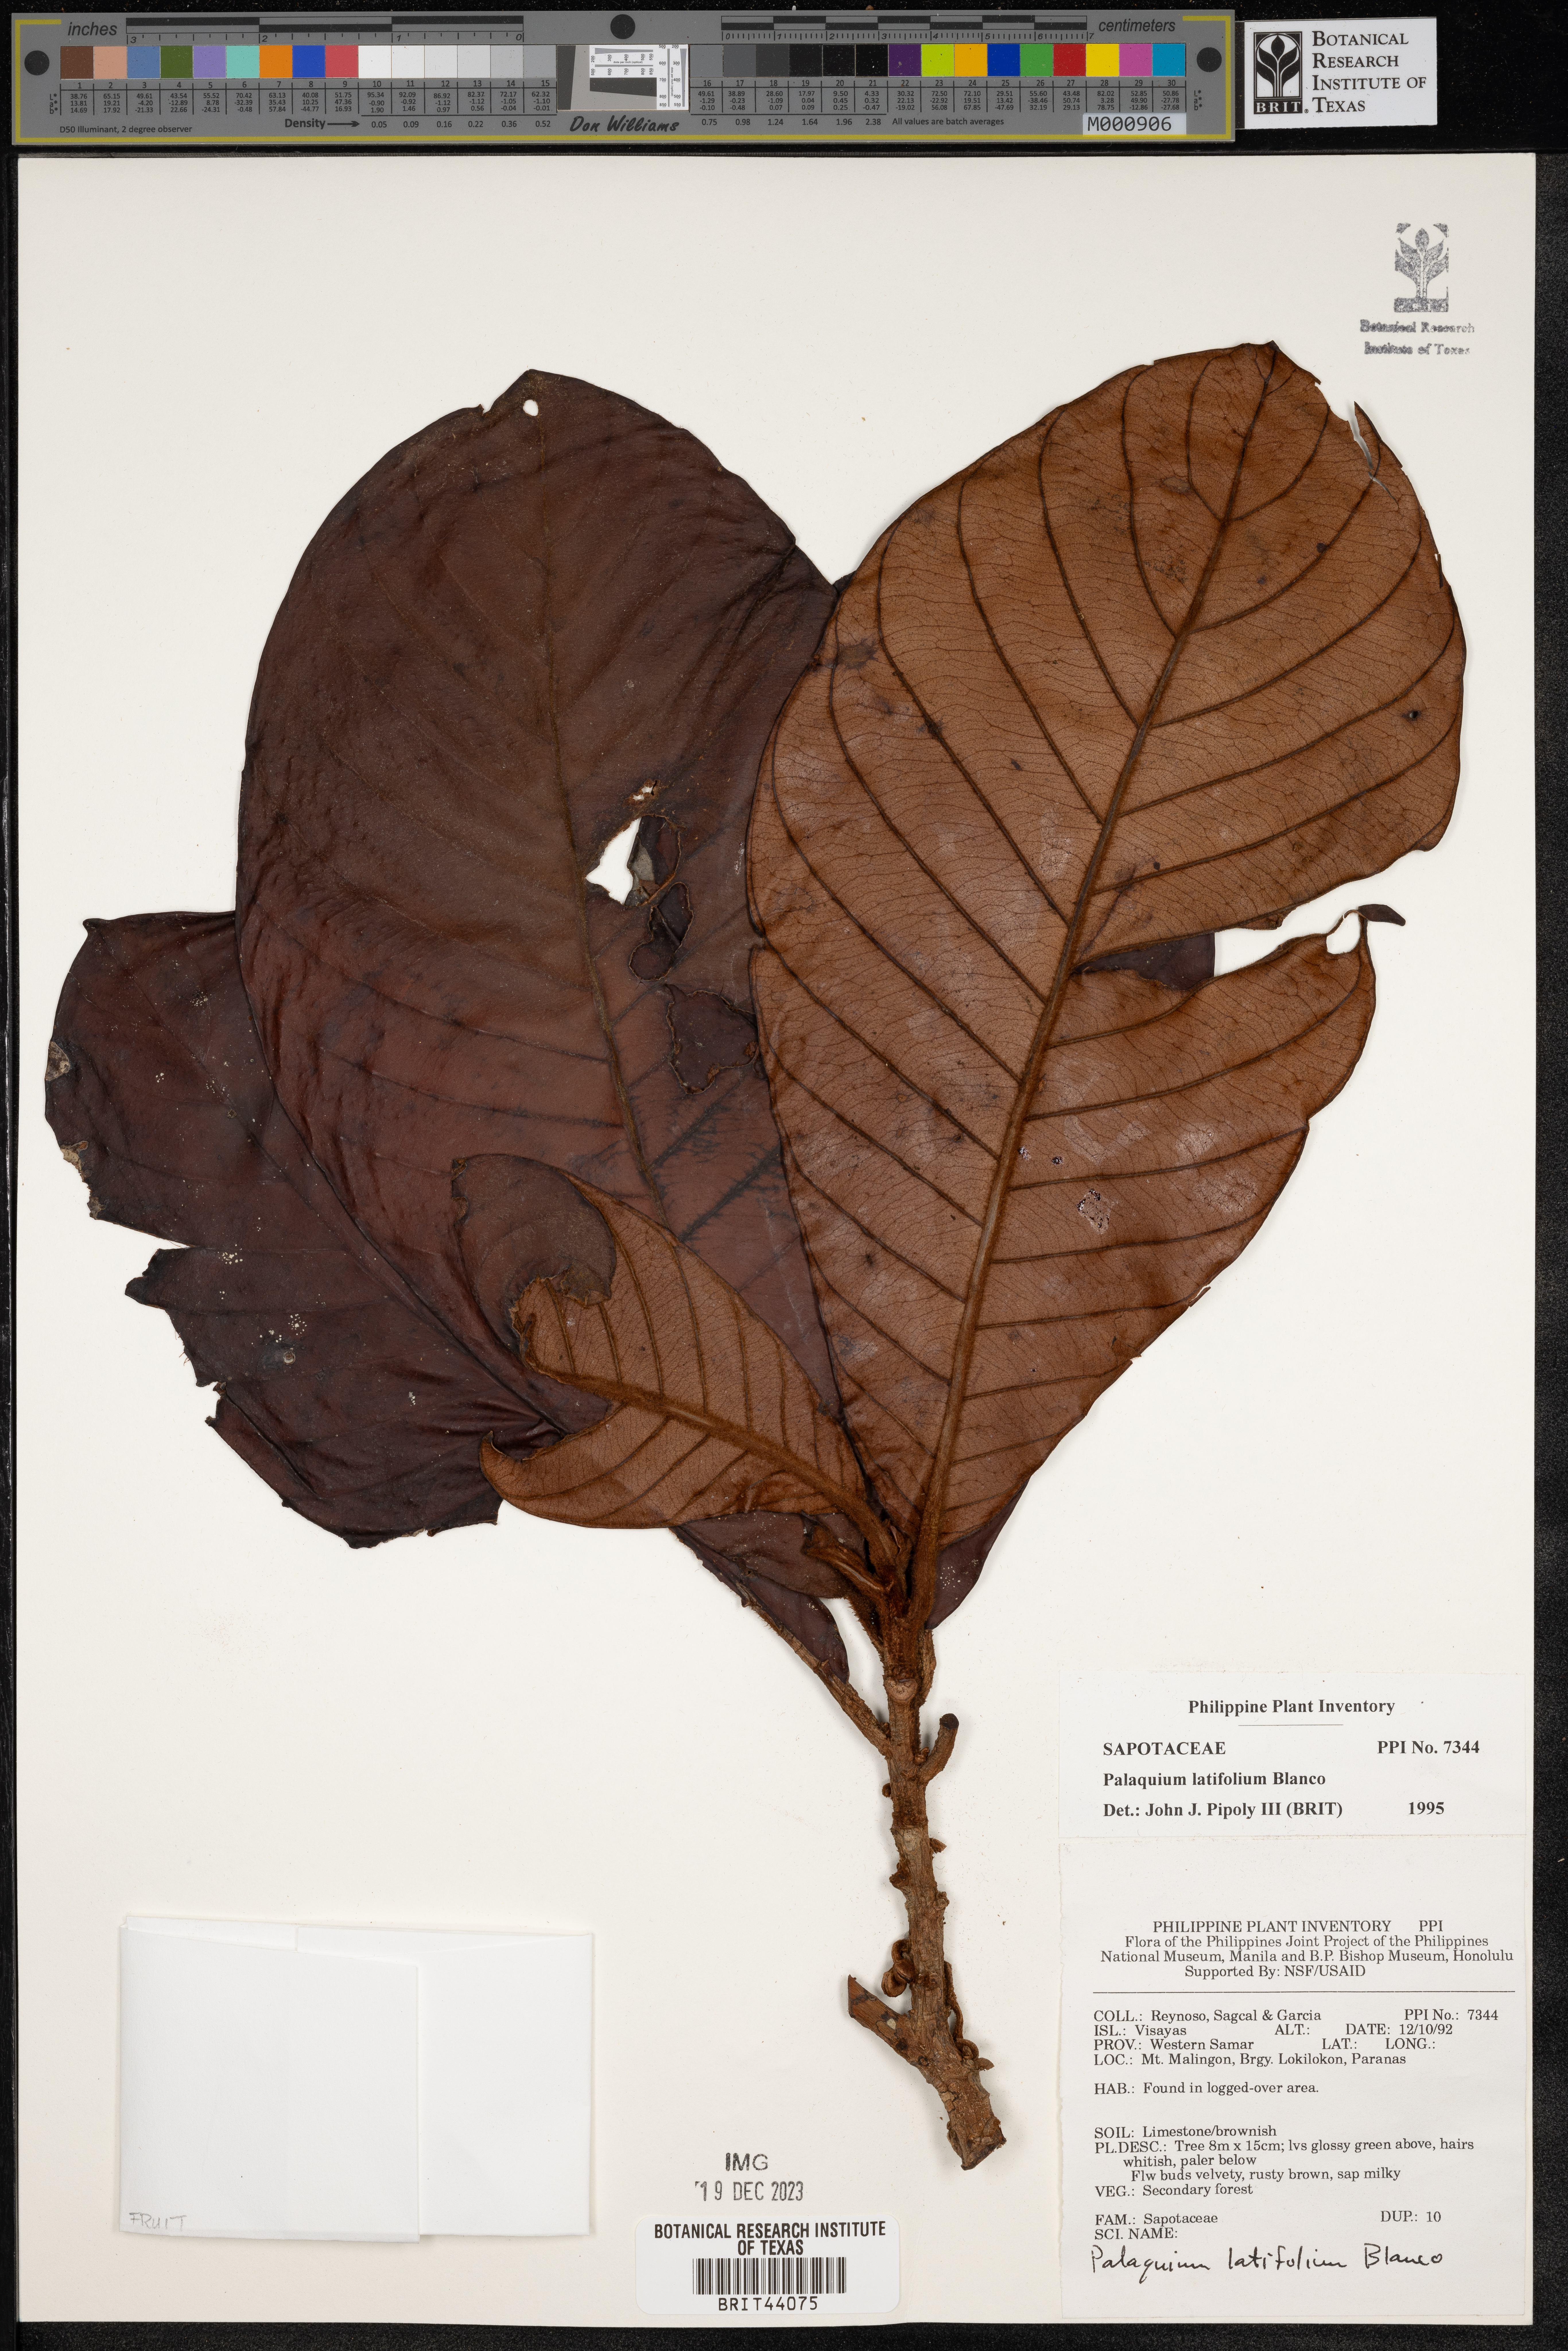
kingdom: Plantae
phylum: Tracheophyta
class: Magnoliopsida
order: Ericales
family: Sapotaceae
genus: Palaquium
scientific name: Palaquium luzoniense
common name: Red nato
